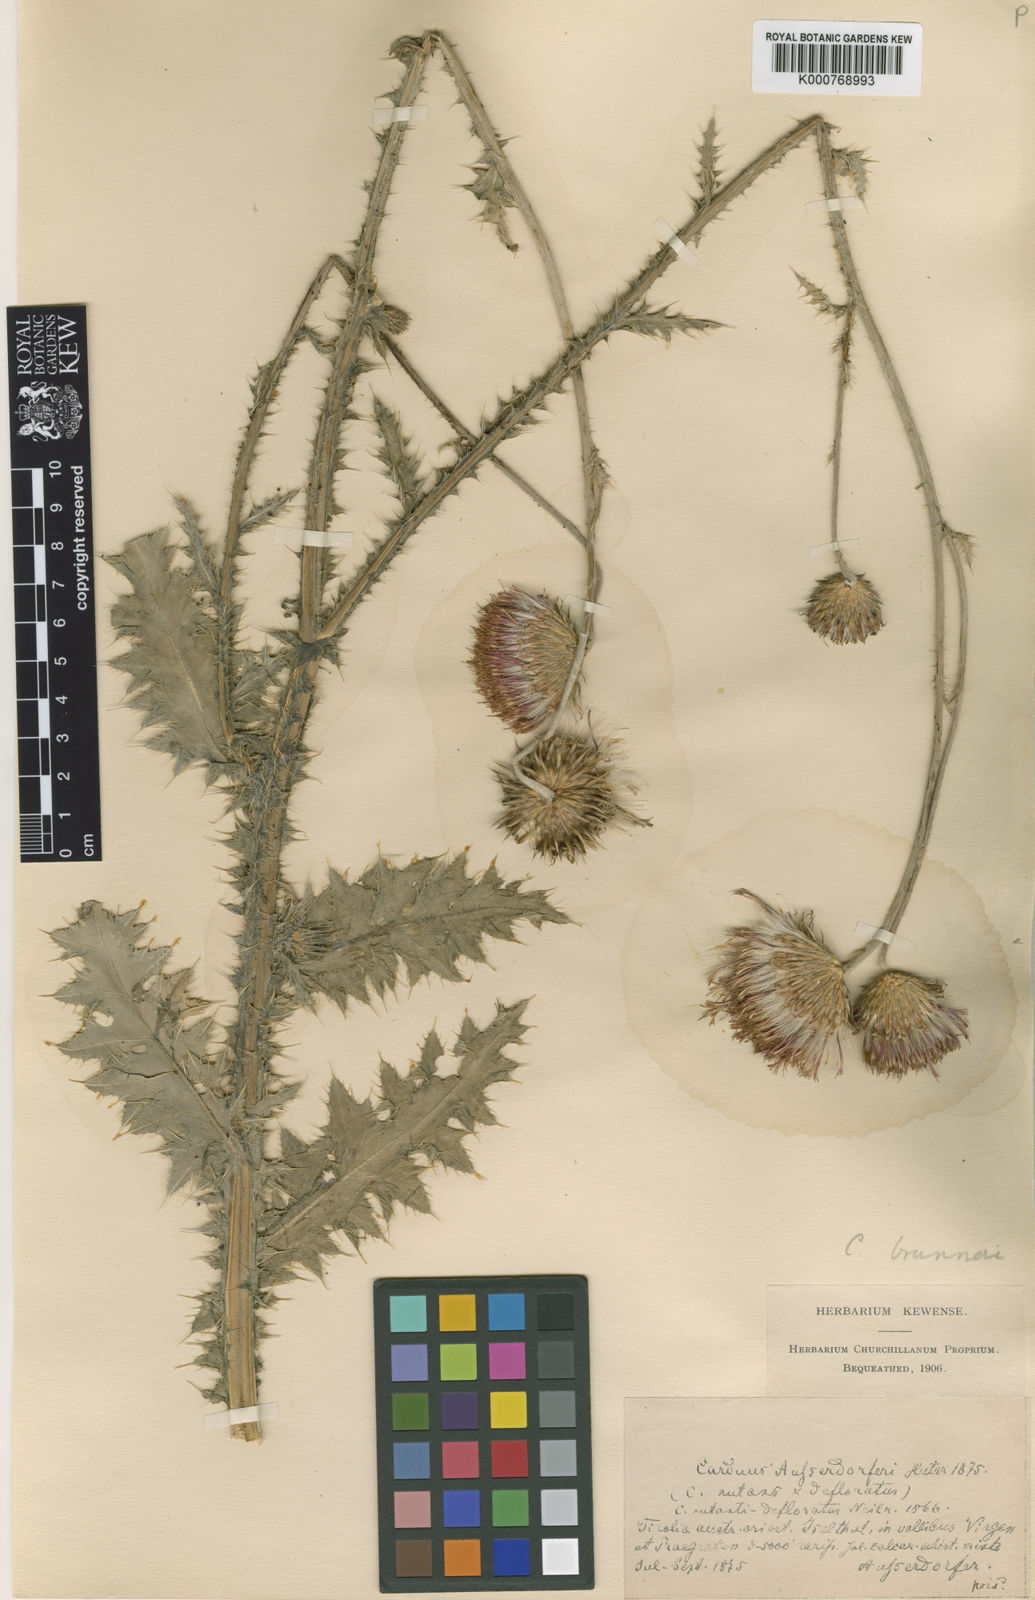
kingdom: Plantae
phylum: Tracheophyta
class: Magnoliopsida
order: Asterales
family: Asteraceae
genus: Carduus
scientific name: Carduus defloratus
